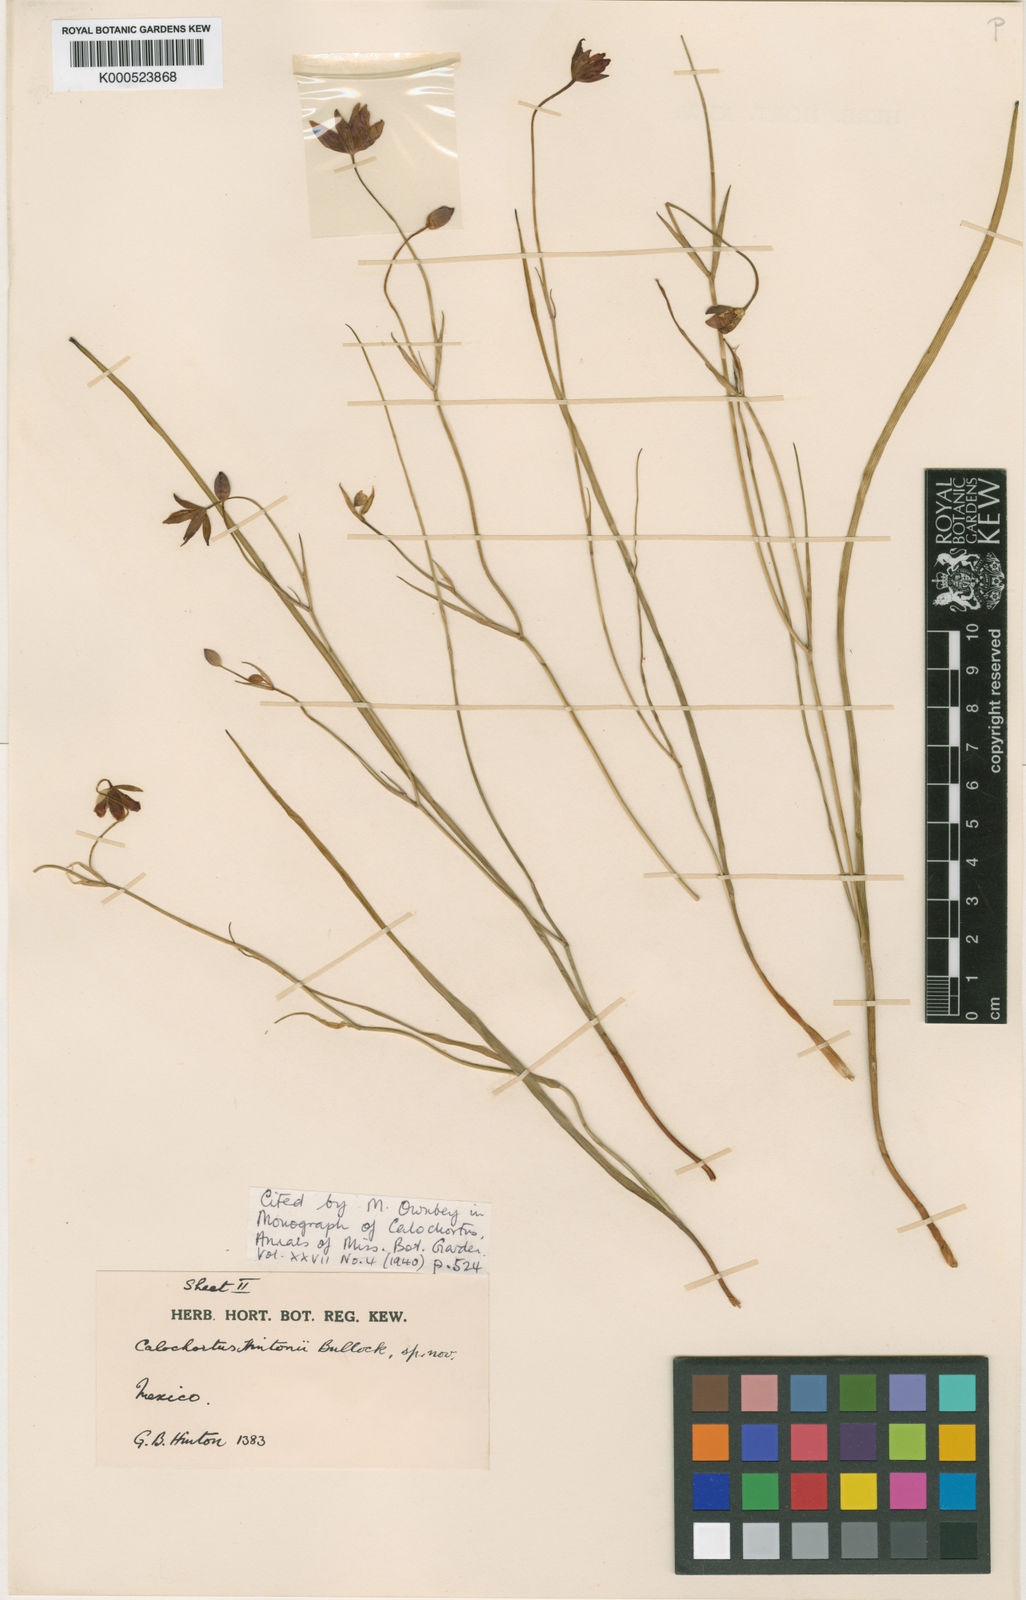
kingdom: Plantae
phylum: Tracheophyta
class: Liliopsida
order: Liliales
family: Liliaceae
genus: Calochortus
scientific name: Calochortus fuscus
